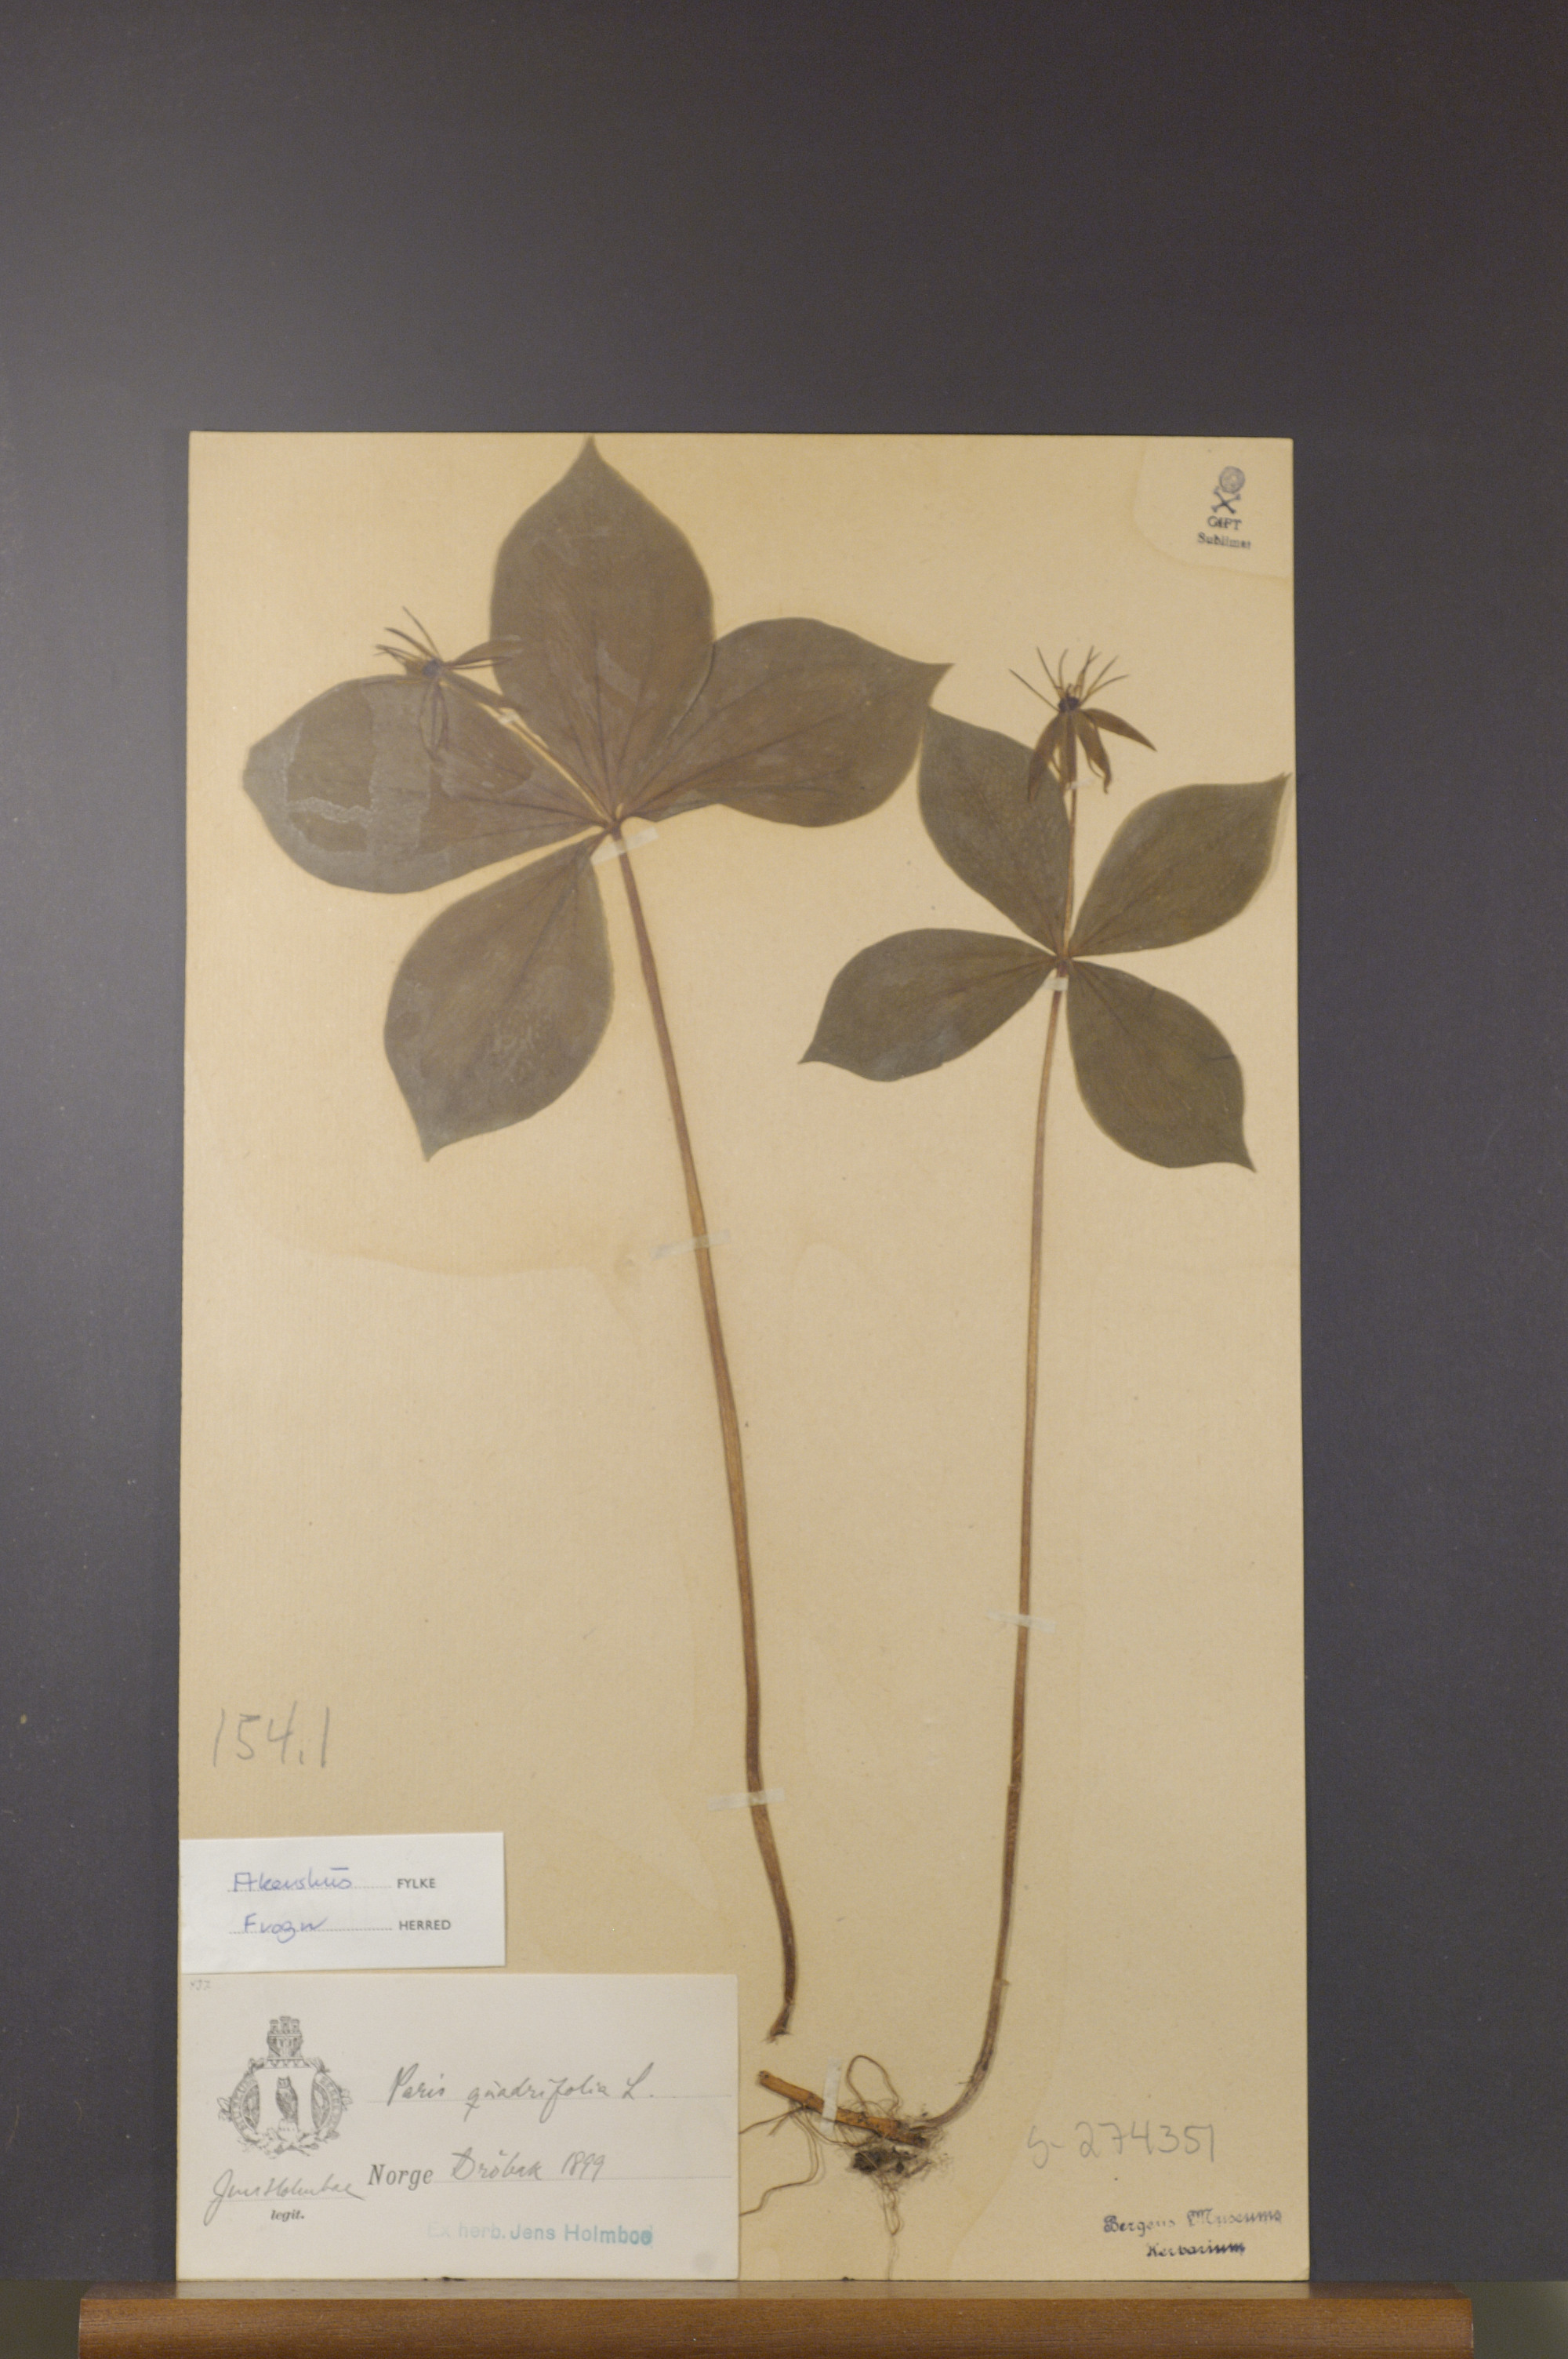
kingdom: Plantae
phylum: Tracheophyta
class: Liliopsida
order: Liliales
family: Melanthiaceae
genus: Paris
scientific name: Paris quadrifolia
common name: Herb-paris
